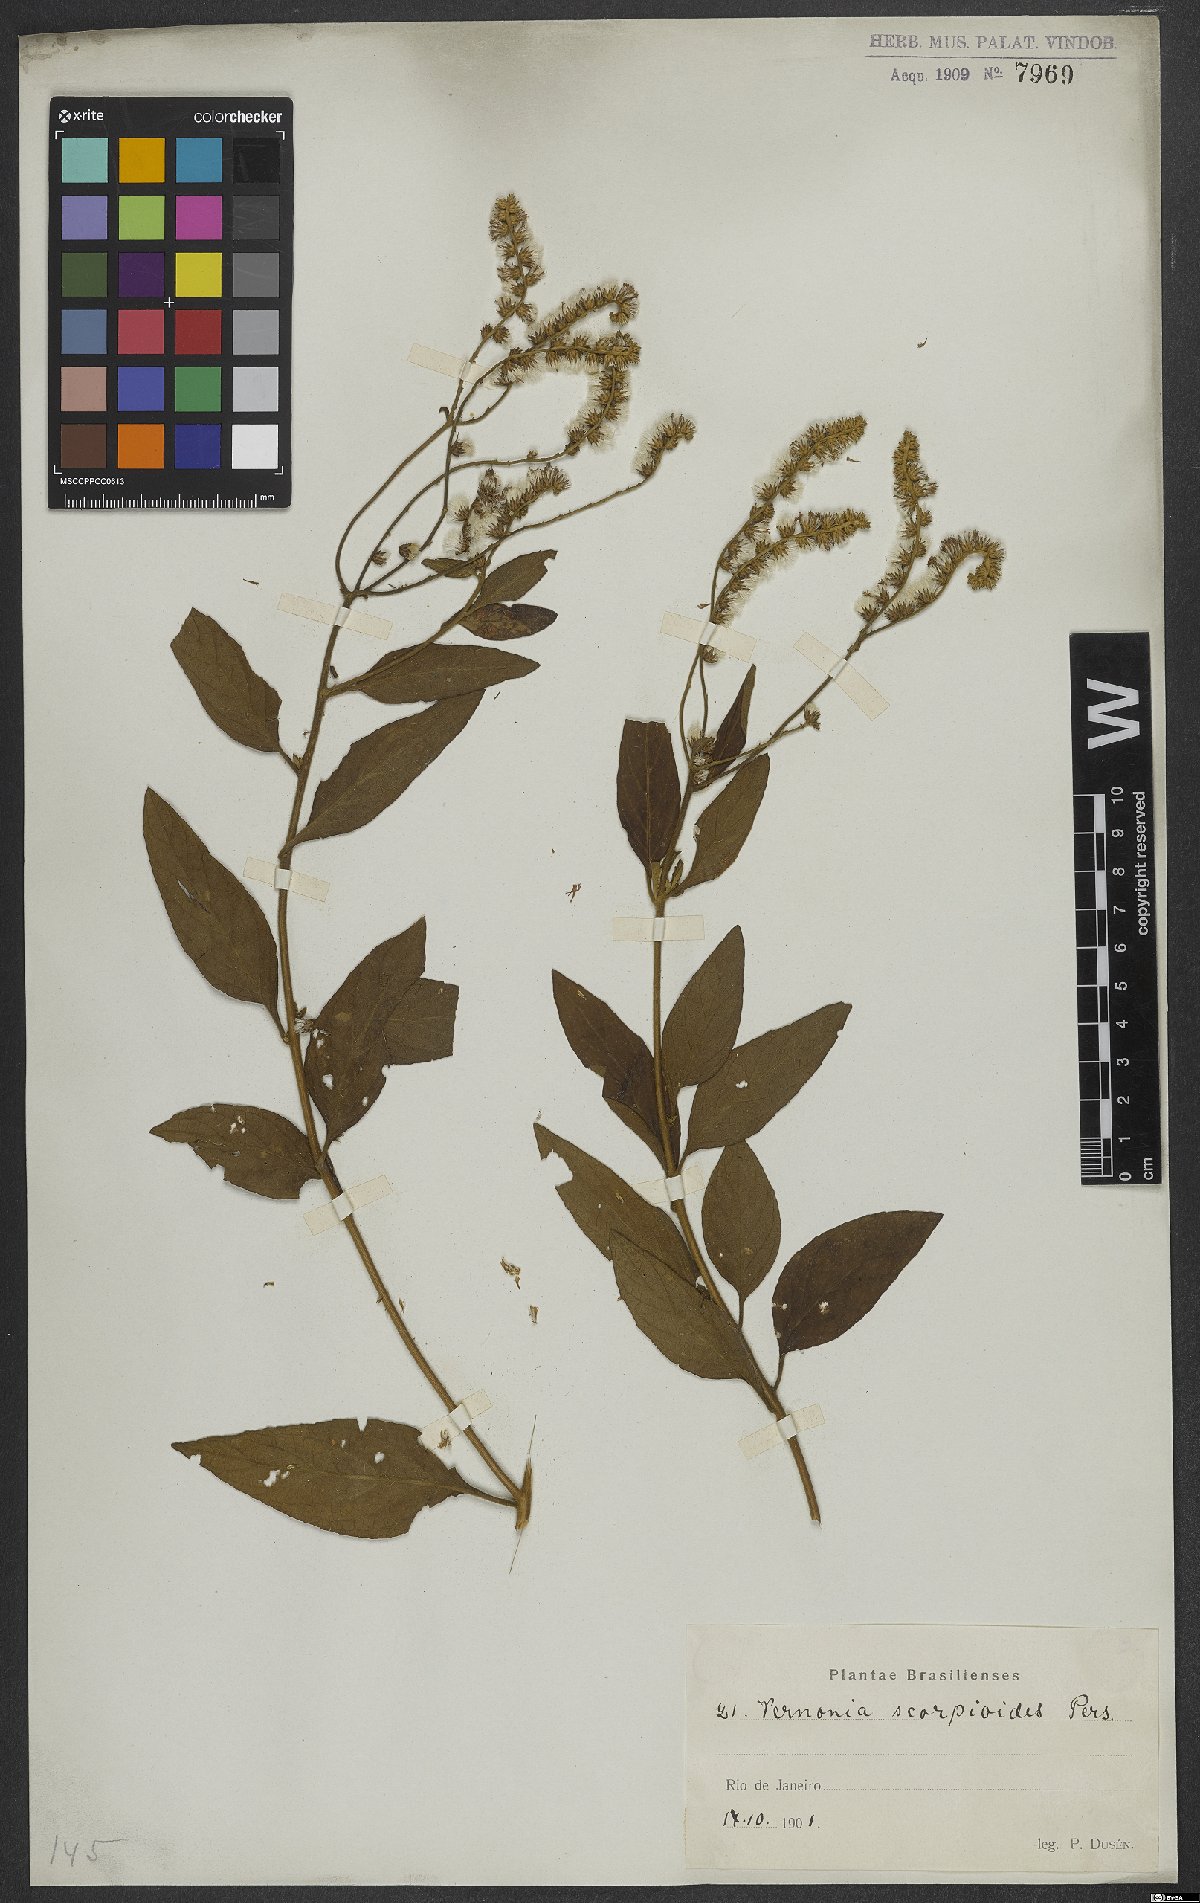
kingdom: Plantae
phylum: Tracheophyta
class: Magnoliopsida
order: Asterales
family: Asteraceae
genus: Cyrtocymura
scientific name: Cyrtocymura scorpioides
